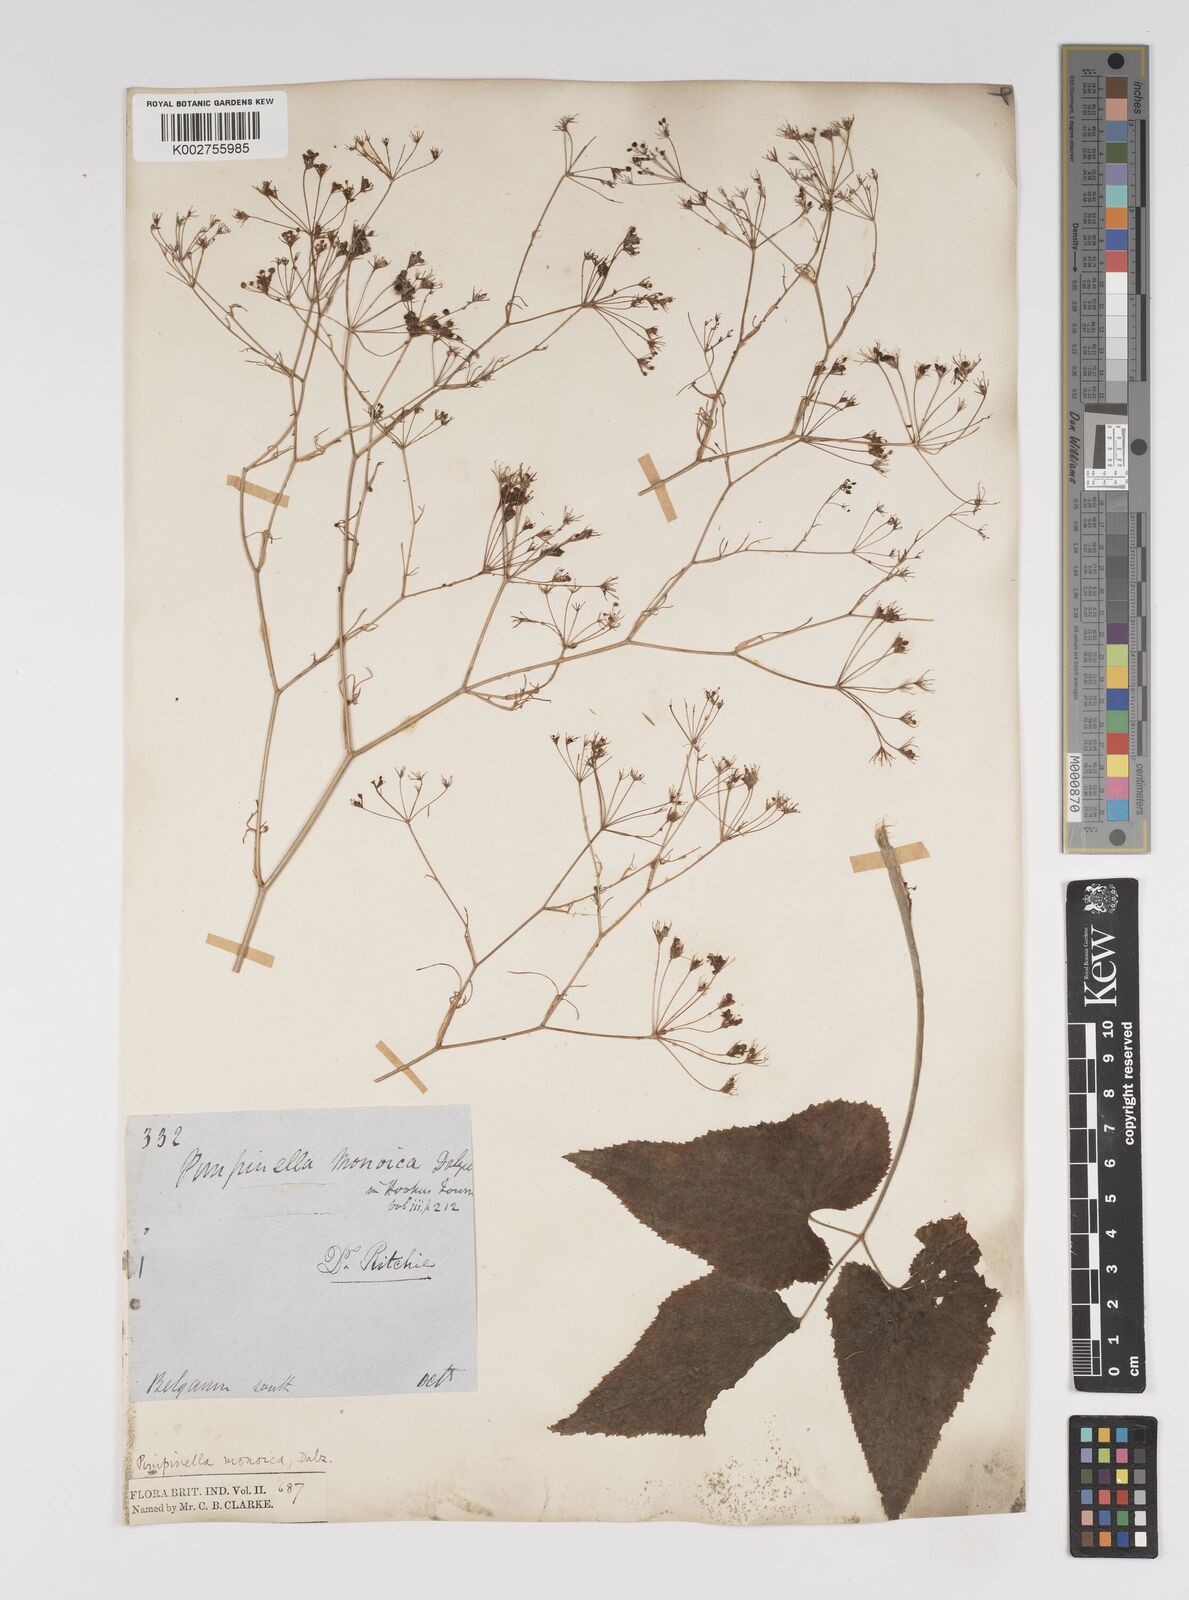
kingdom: Plantae
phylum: Tracheophyta
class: Magnoliopsida
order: Apiales
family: Apiaceae
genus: Pimpinella
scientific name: Pimpinella wallichiana
